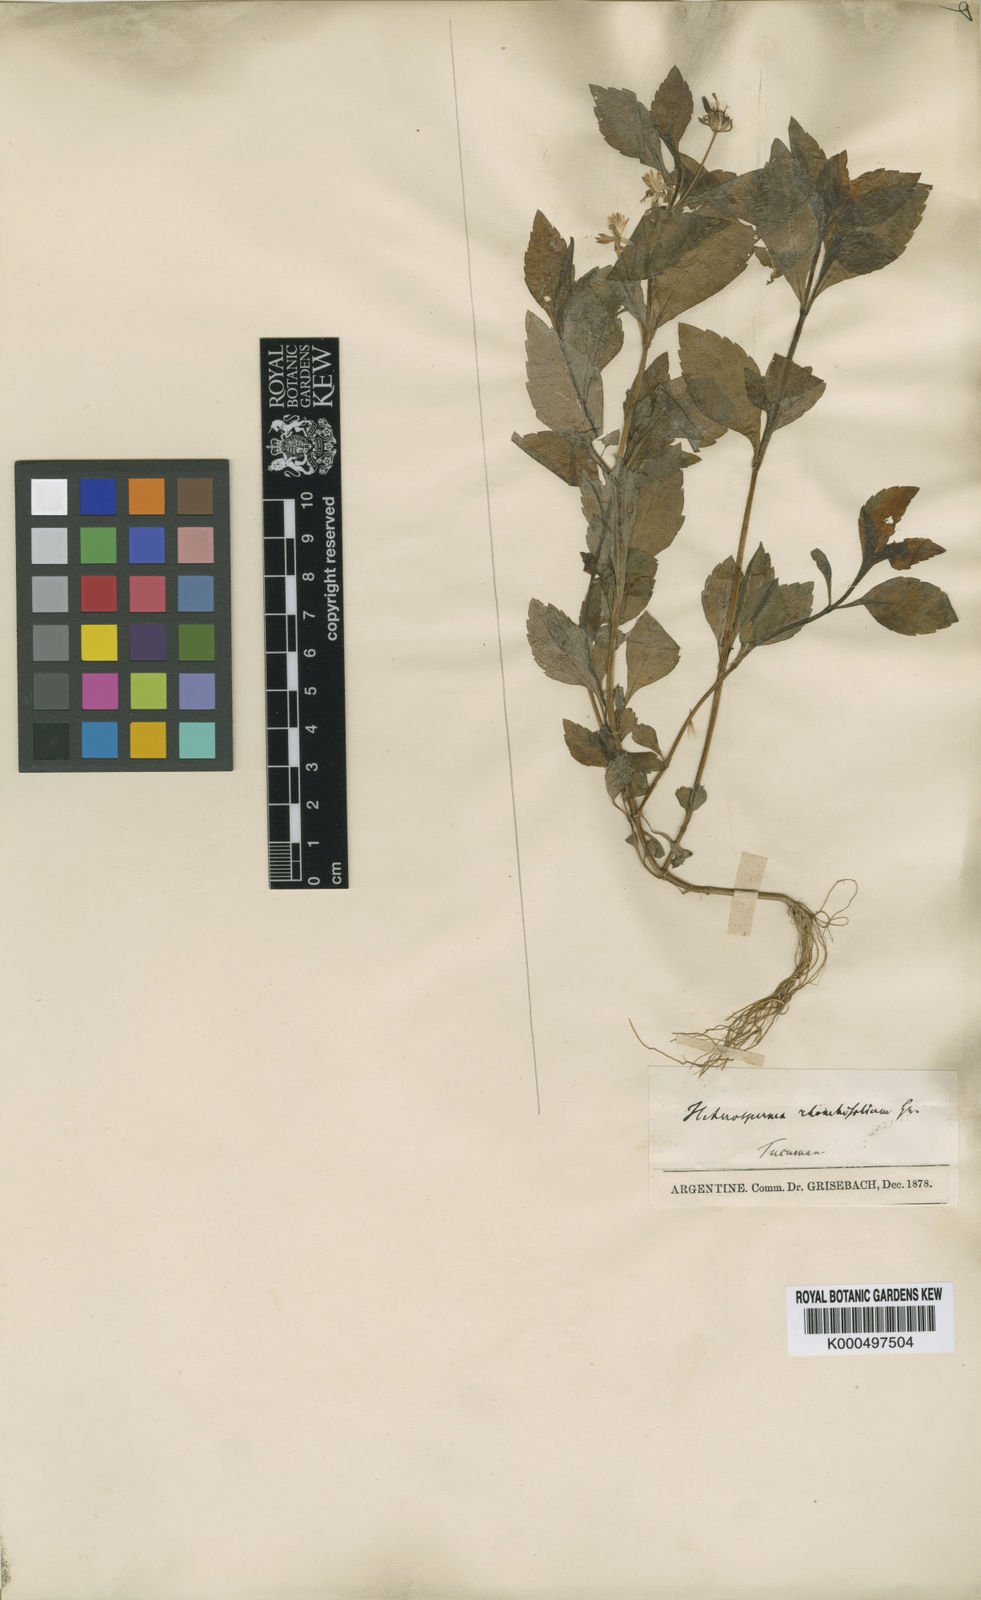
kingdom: Plantae
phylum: Tracheophyta
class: Magnoliopsida
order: Asterales
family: Asteraceae
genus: Heterosperma
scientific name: Heterosperma ovatifolium
